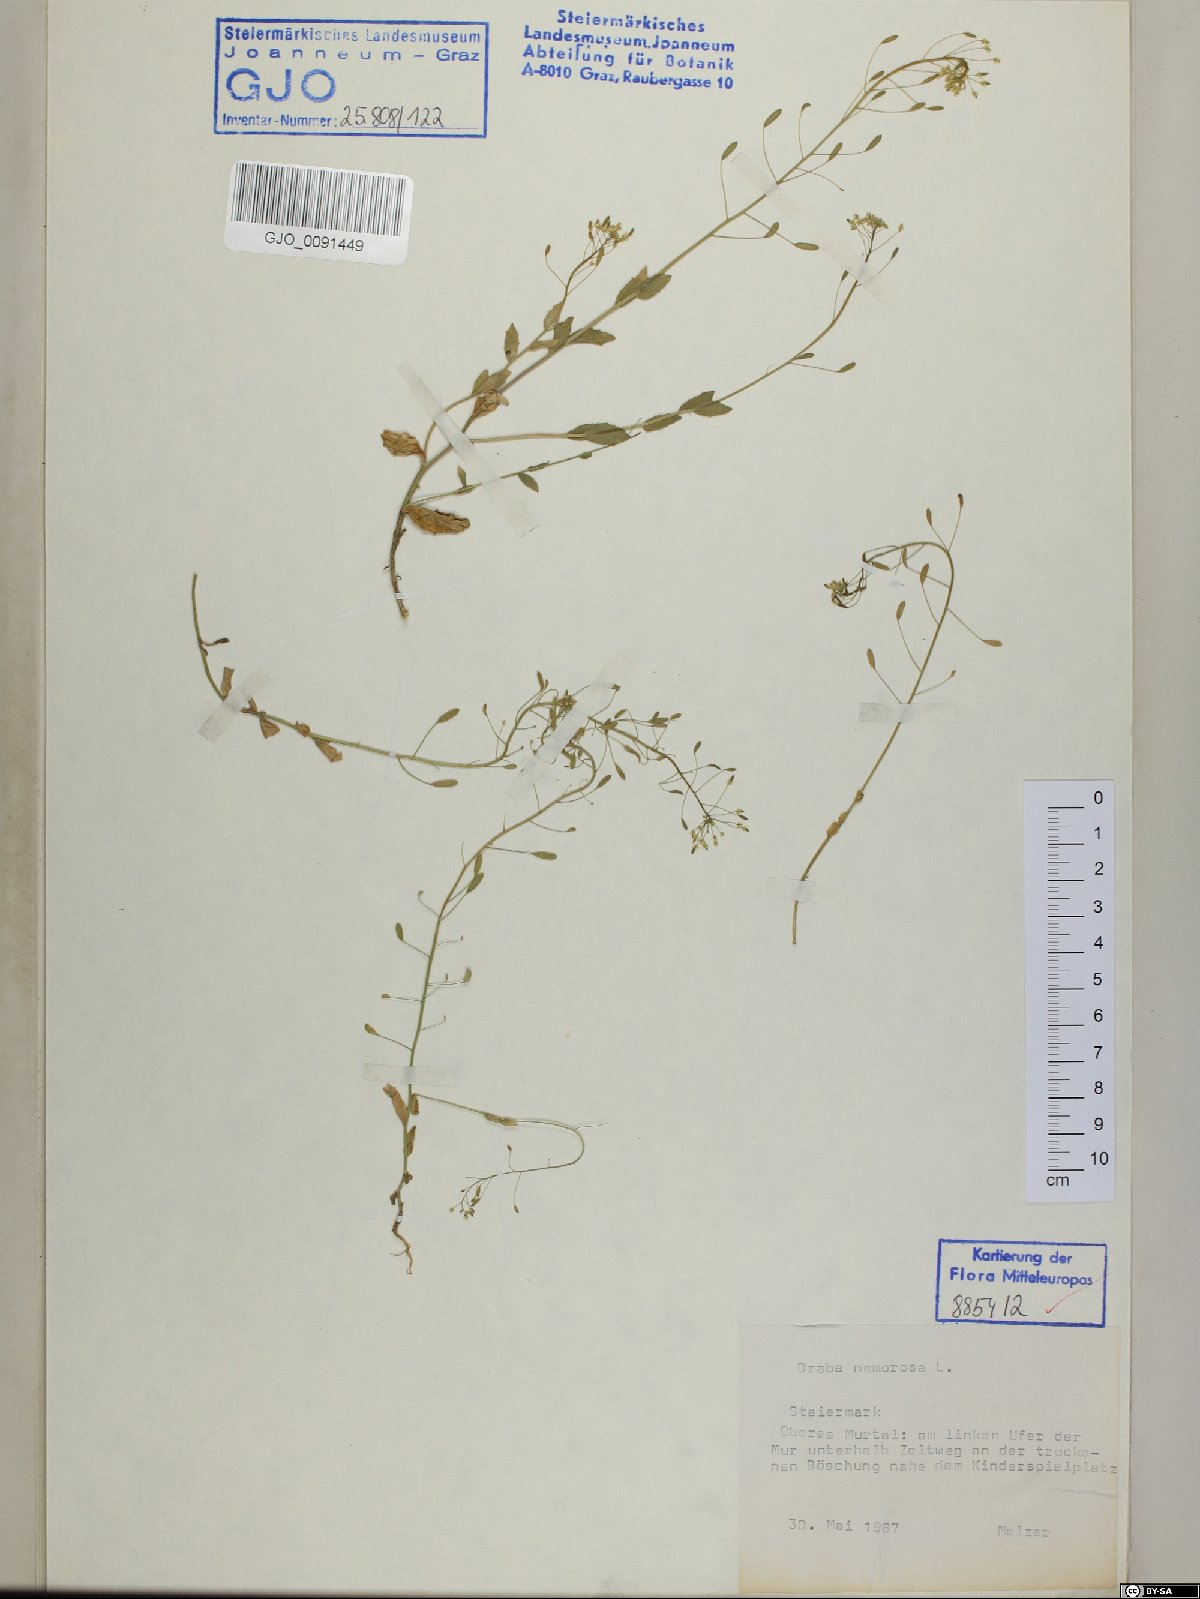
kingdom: Plantae
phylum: Tracheophyta
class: Magnoliopsida
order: Brassicales
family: Brassicaceae
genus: Draba
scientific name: Draba nemorosa
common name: Wood whitlow-grass
